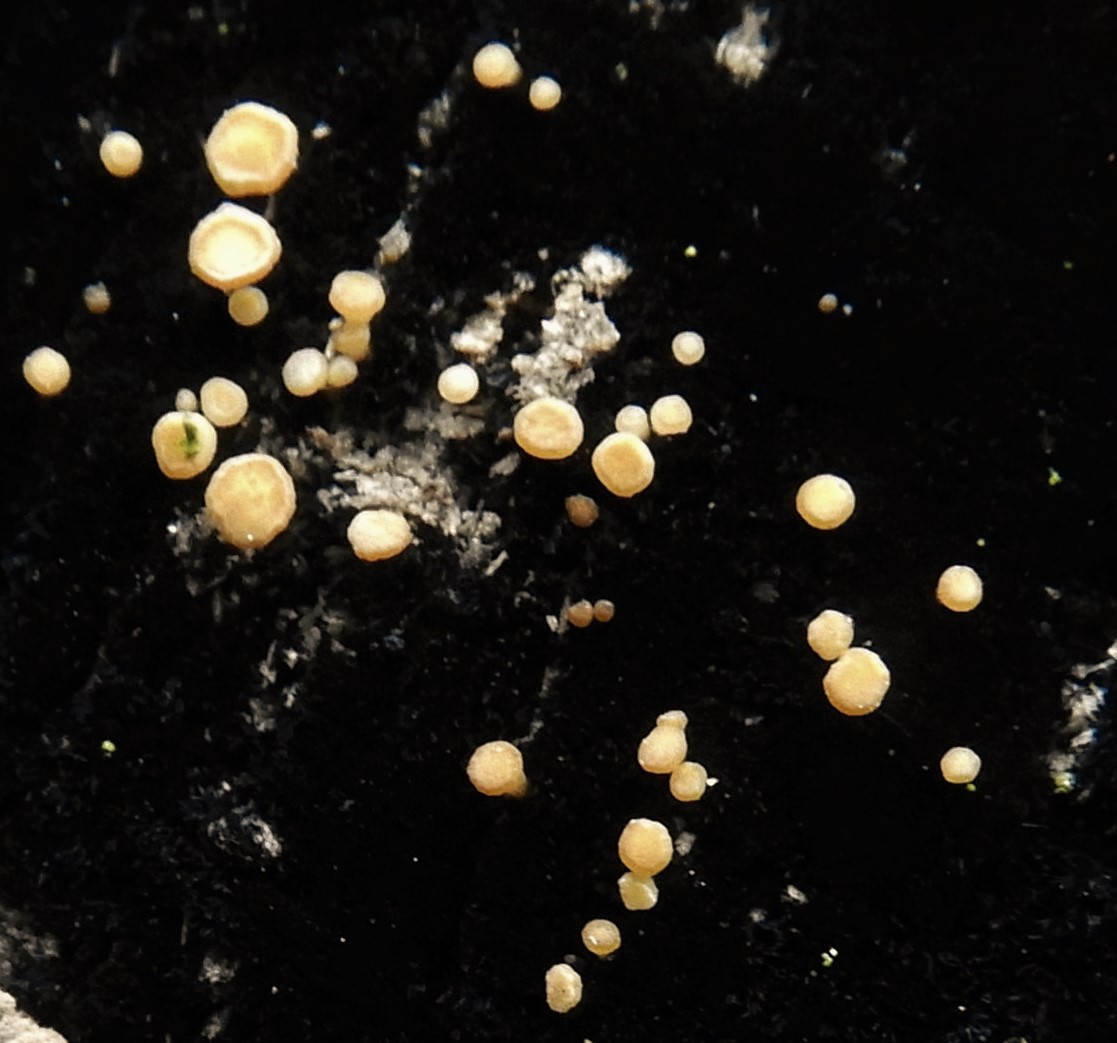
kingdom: Fungi
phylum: Ascomycota
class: Leotiomycetes
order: Helotiales
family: Helotiaceae
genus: Bispora
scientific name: Bispora pallescens
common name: måtte-snitskive
